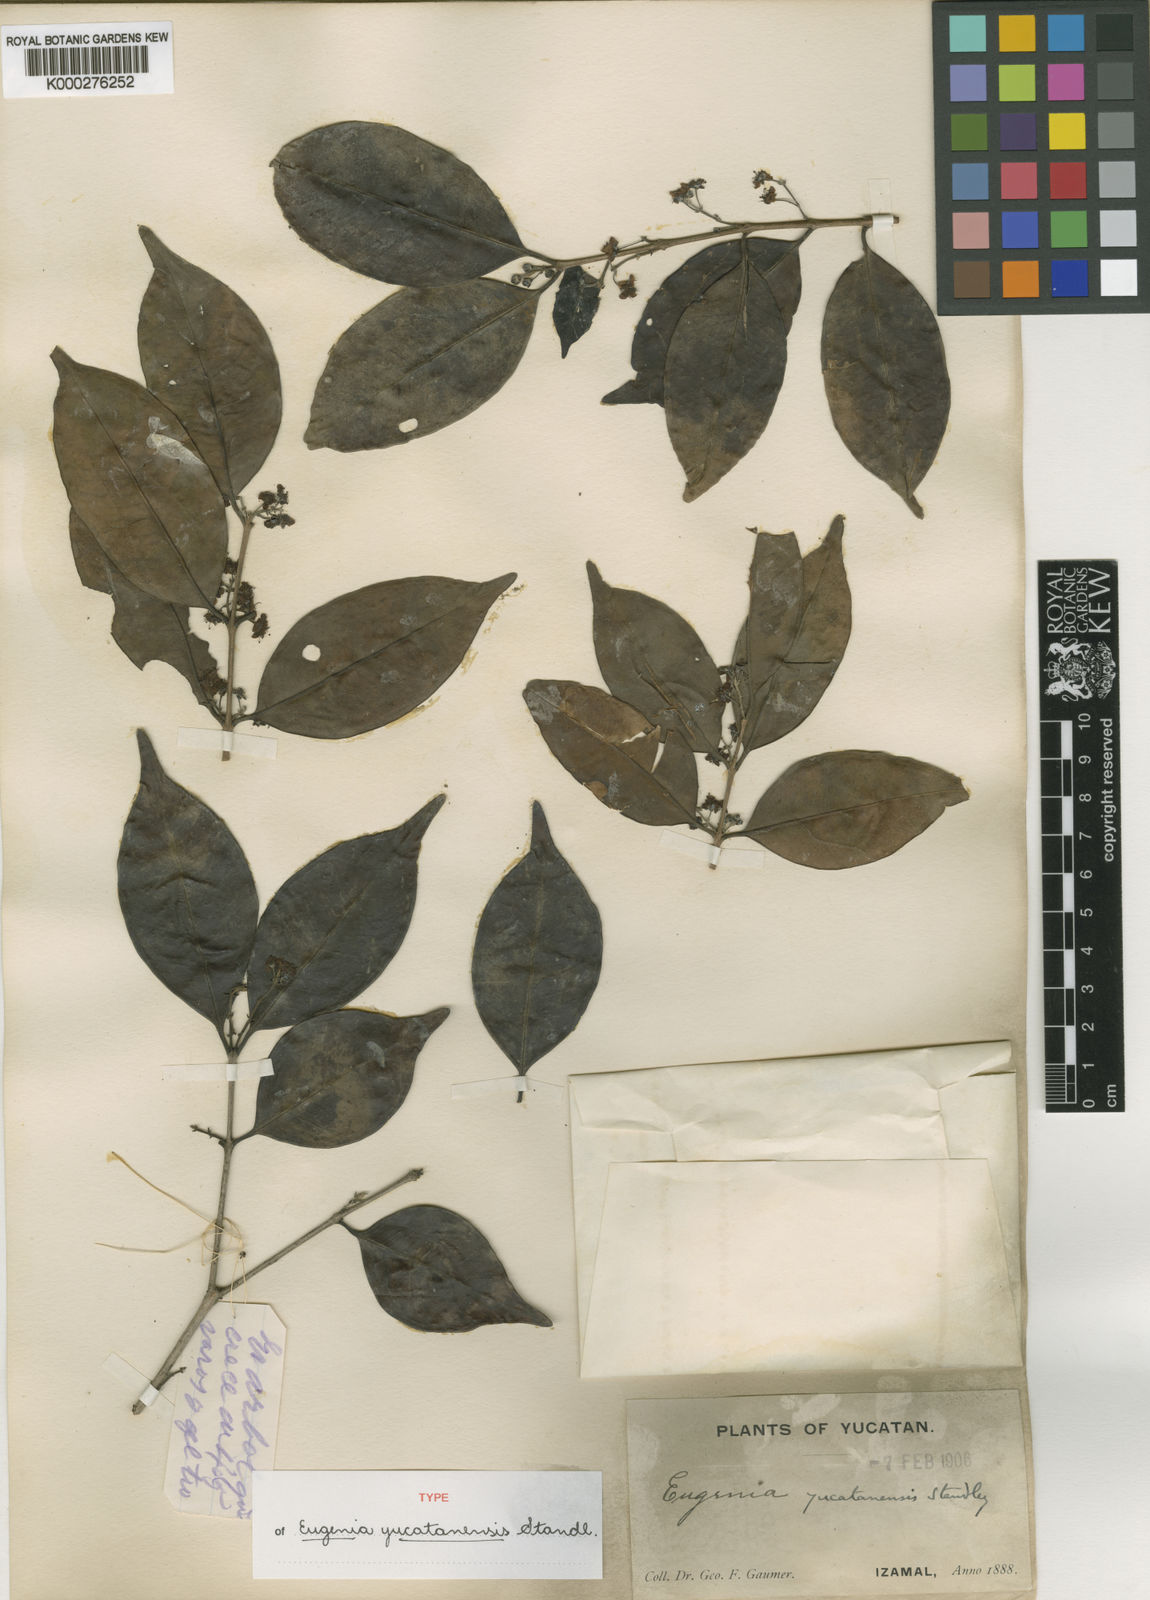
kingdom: Plantae
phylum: Tracheophyta
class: Magnoliopsida
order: Myrtales
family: Myrtaceae
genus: Eugenia
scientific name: Eugenia karwinskyana
